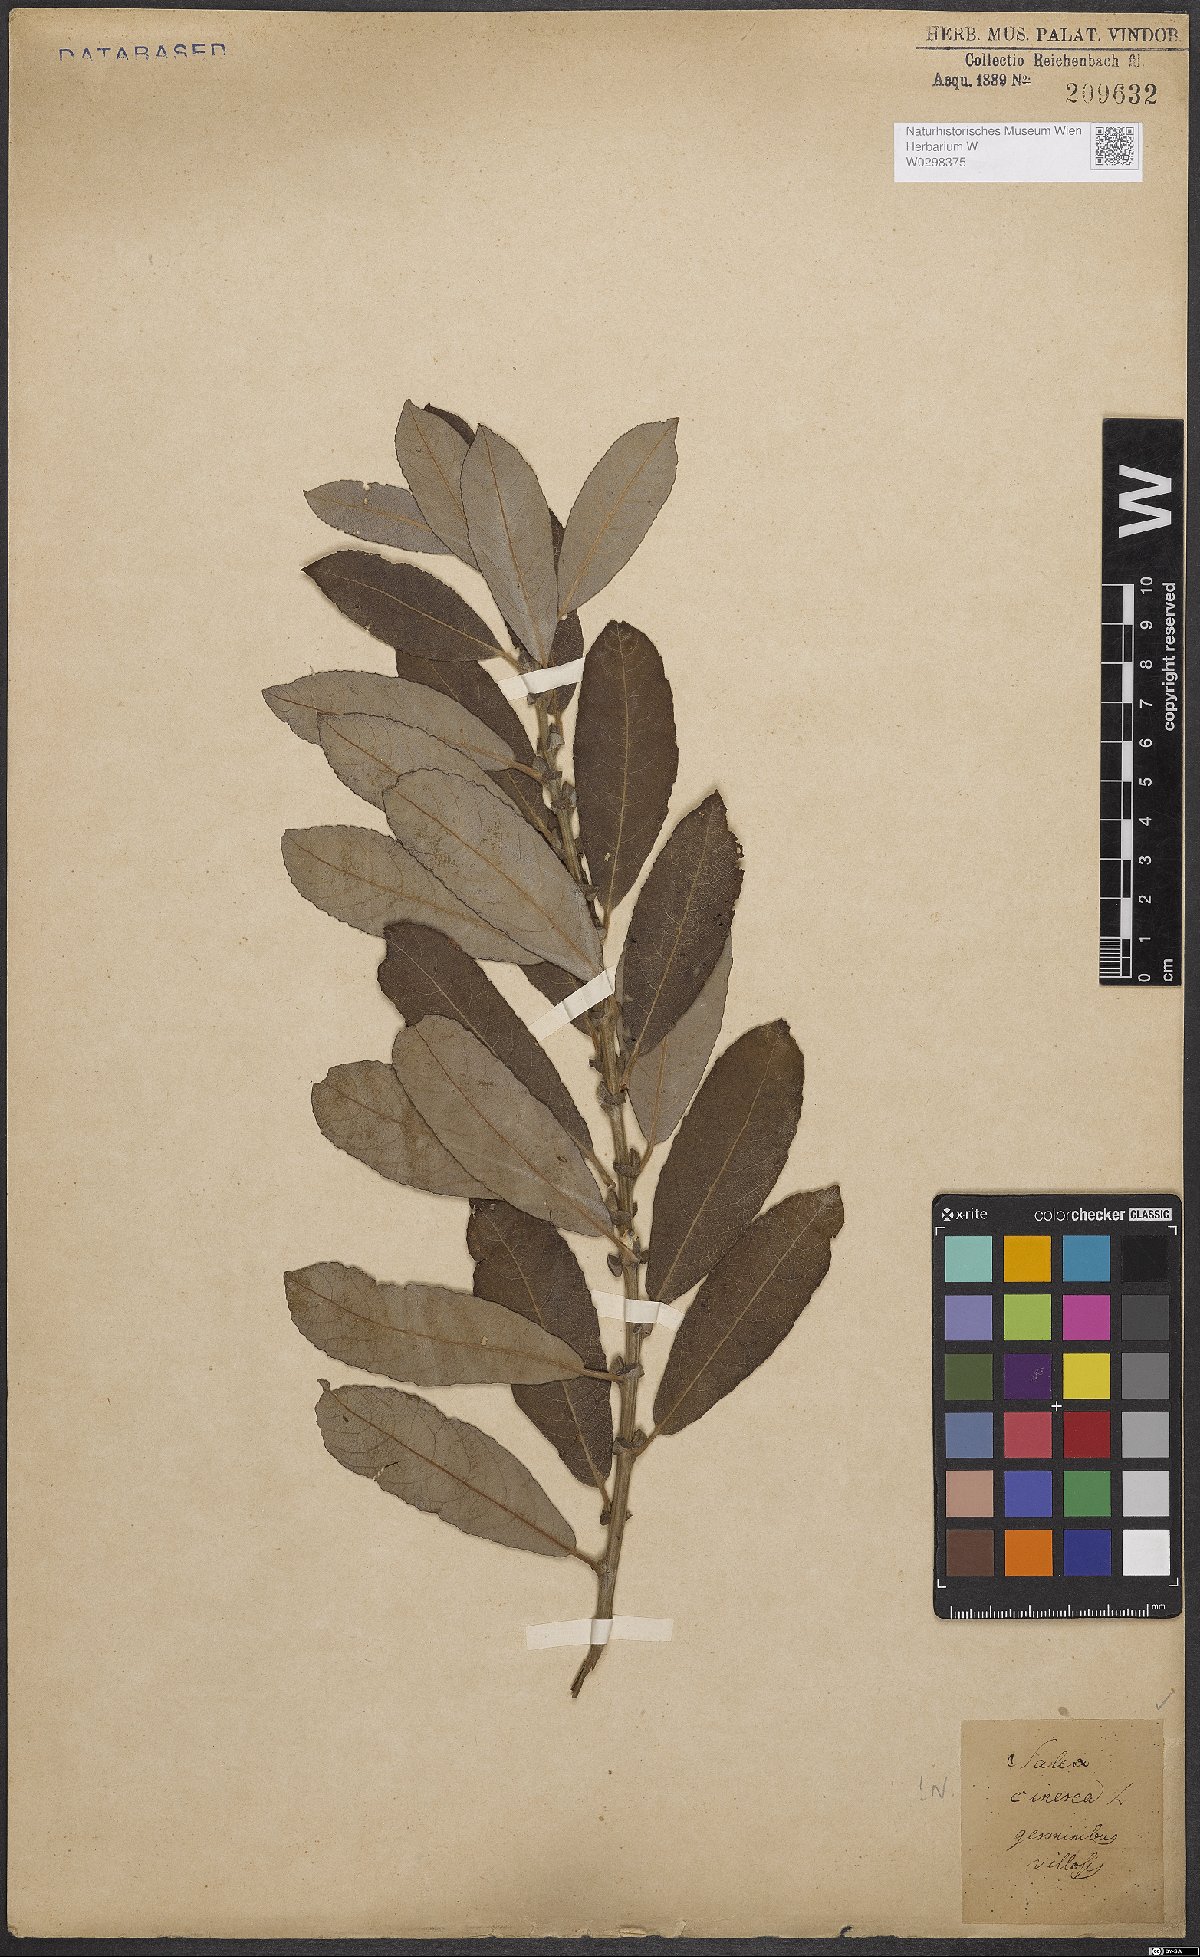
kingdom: Plantae
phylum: Tracheophyta
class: Magnoliopsida
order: Malpighiales
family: Salicaceae
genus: Salix
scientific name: Salix cinerea
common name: Common sallow
